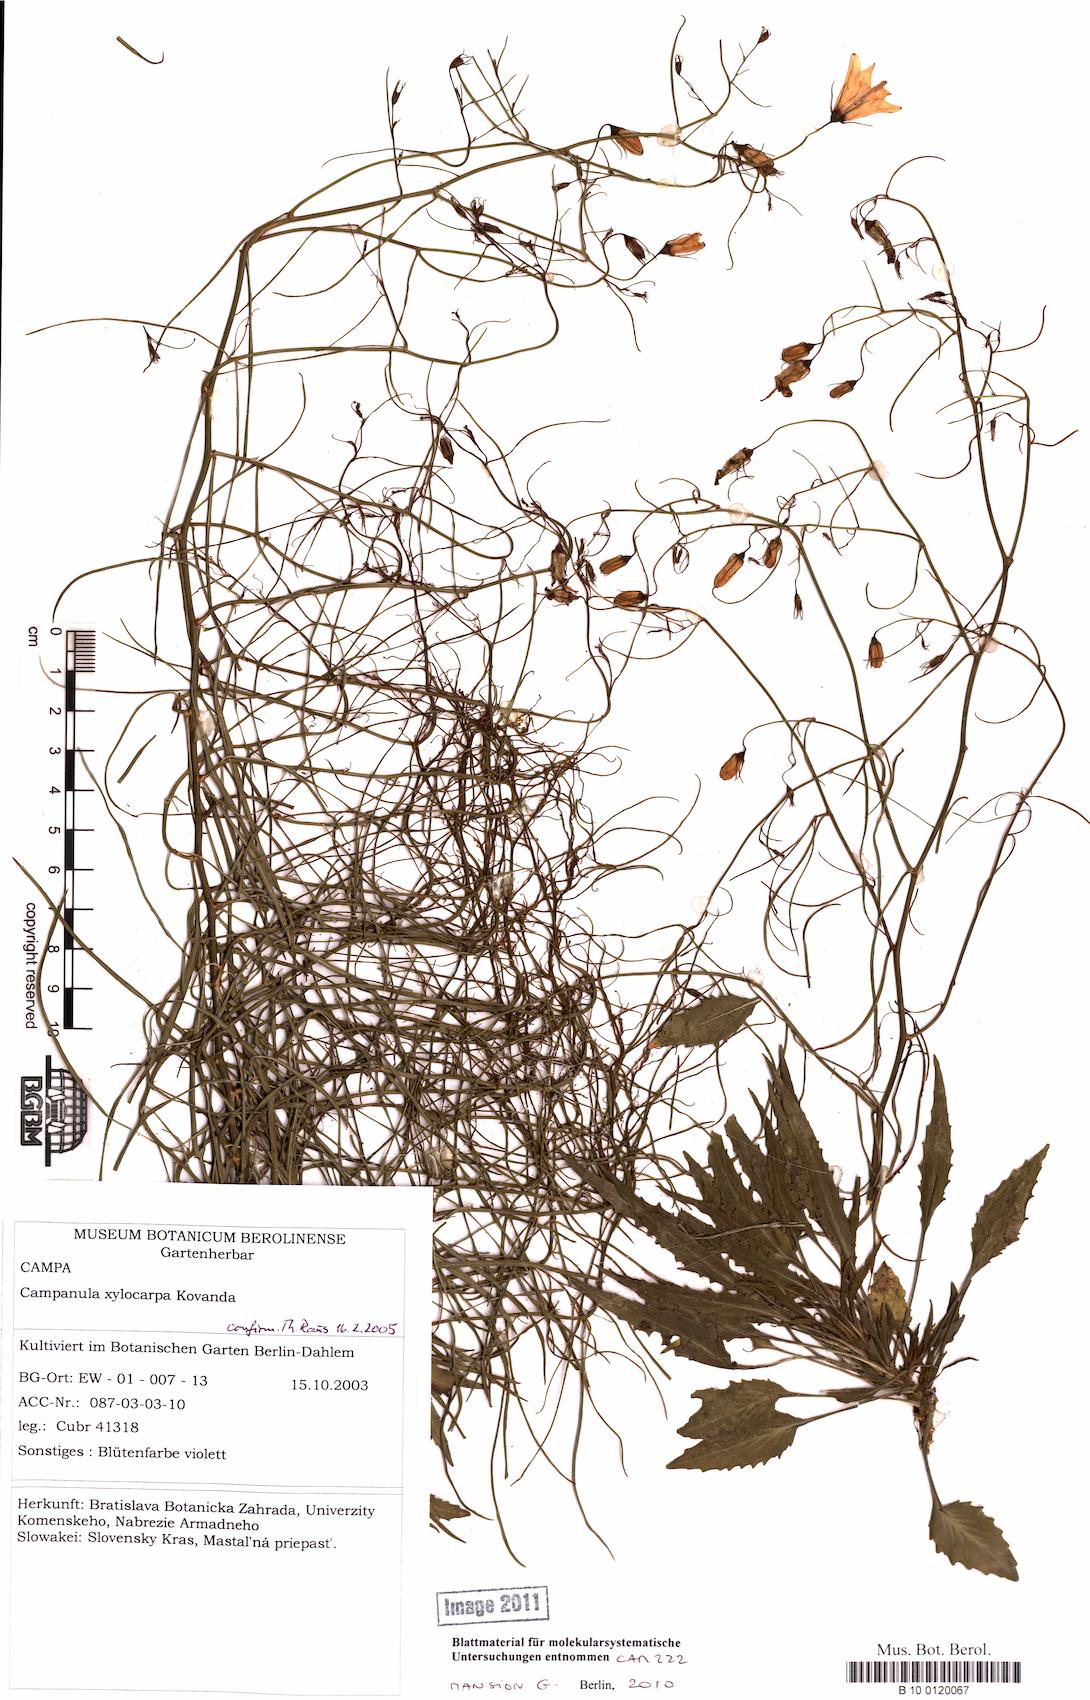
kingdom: Plantae
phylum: Tracheophyta
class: Magnoliopsida
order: Asterales
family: Campanulaceae
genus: Campanula
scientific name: Campanula xylocarpa
